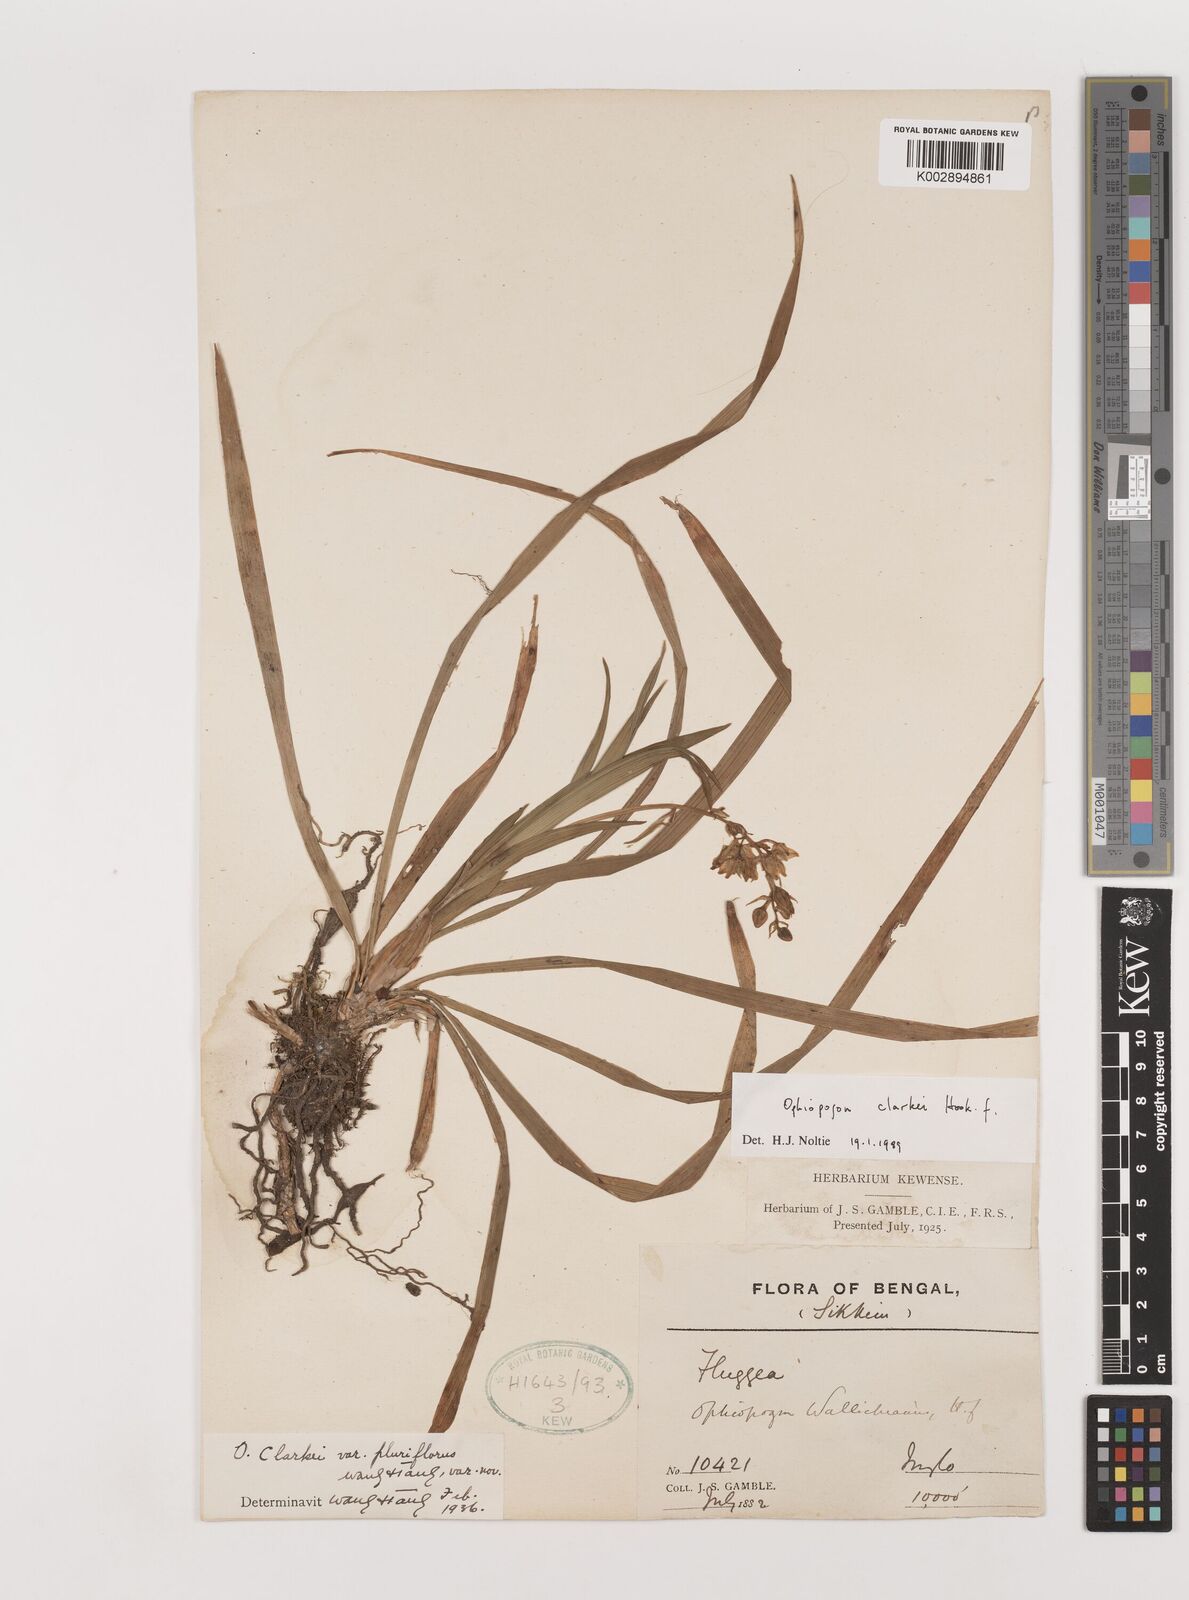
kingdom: Plantae
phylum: Tracheophyta
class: Liliopsida
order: Asparagales
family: Asparagaceae
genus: Ophiopogon
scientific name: Ophiopogon clarkei
